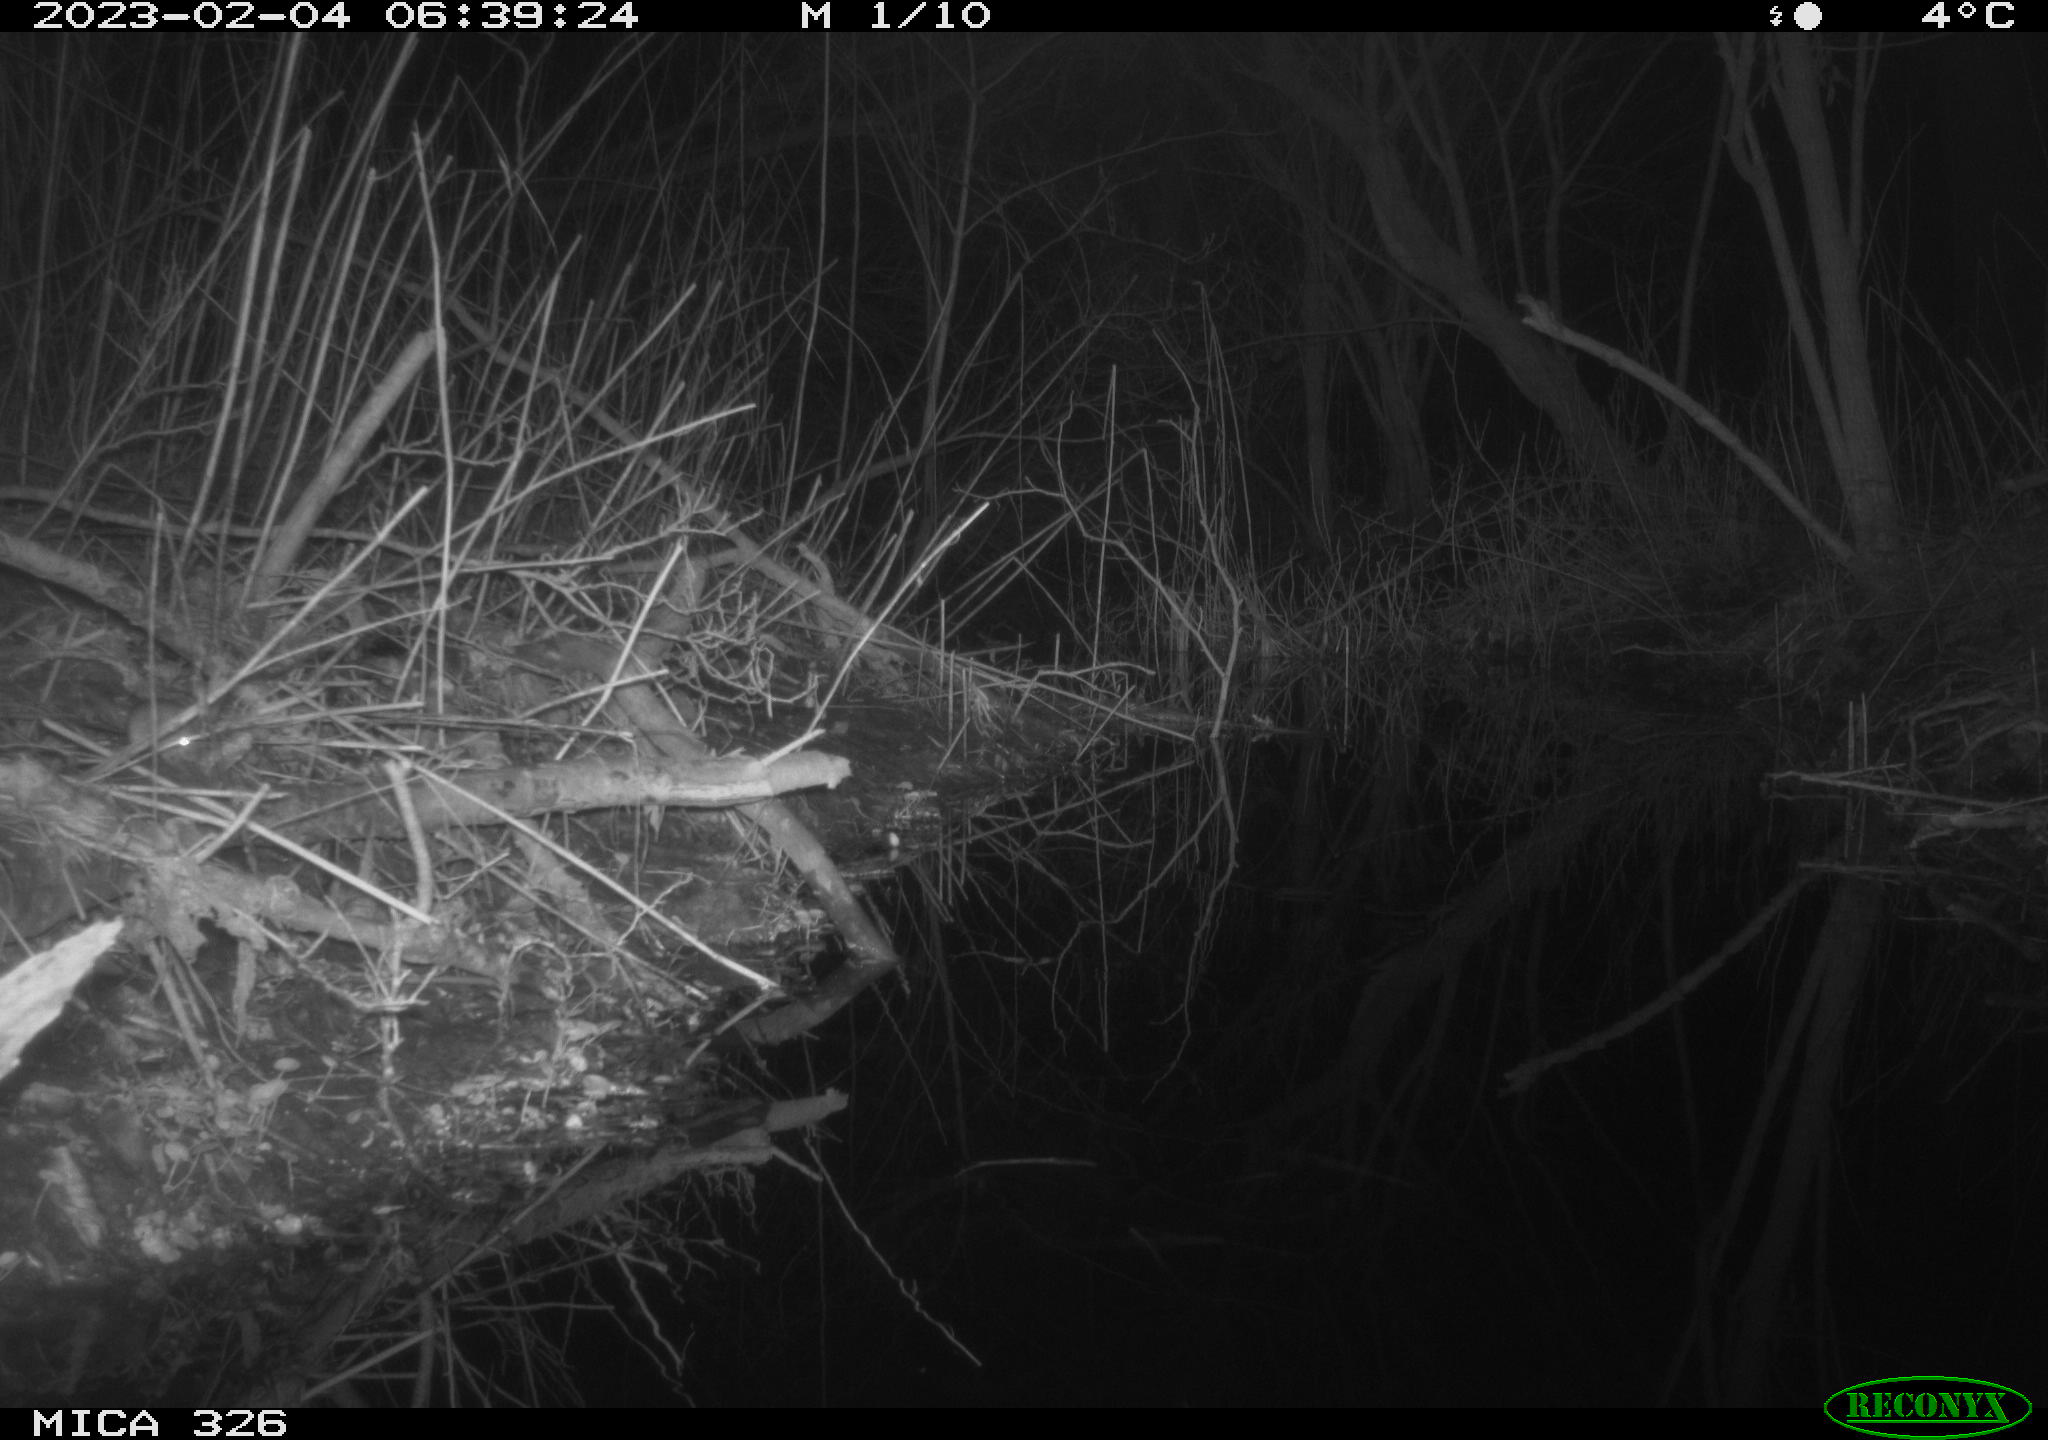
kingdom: Animalia
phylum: Chordata
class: Mammalia
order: Rodentia
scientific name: Rodentia
